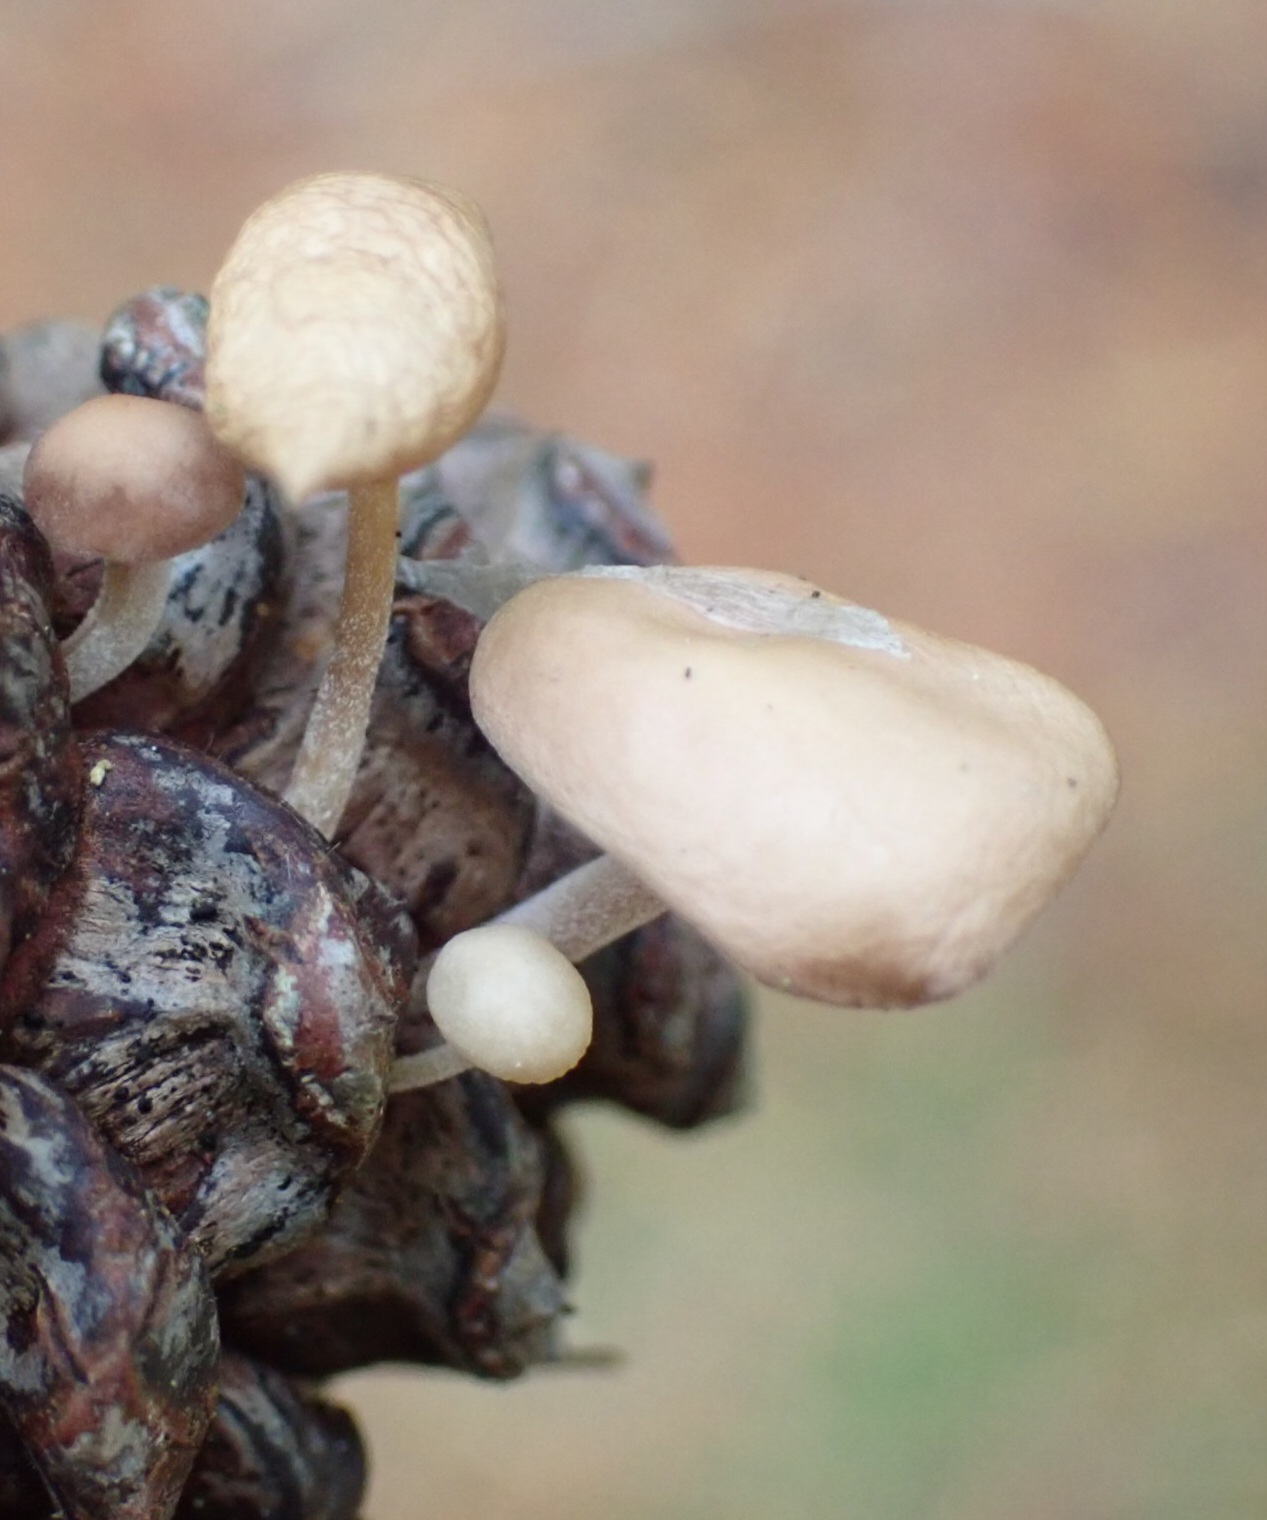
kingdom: Fungi
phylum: Basidiomycota
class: Agaricomycetes
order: Agaricales
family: Marasmiaceae
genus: Baeospora
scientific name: Baeospora myosura
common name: koglebruskhat
